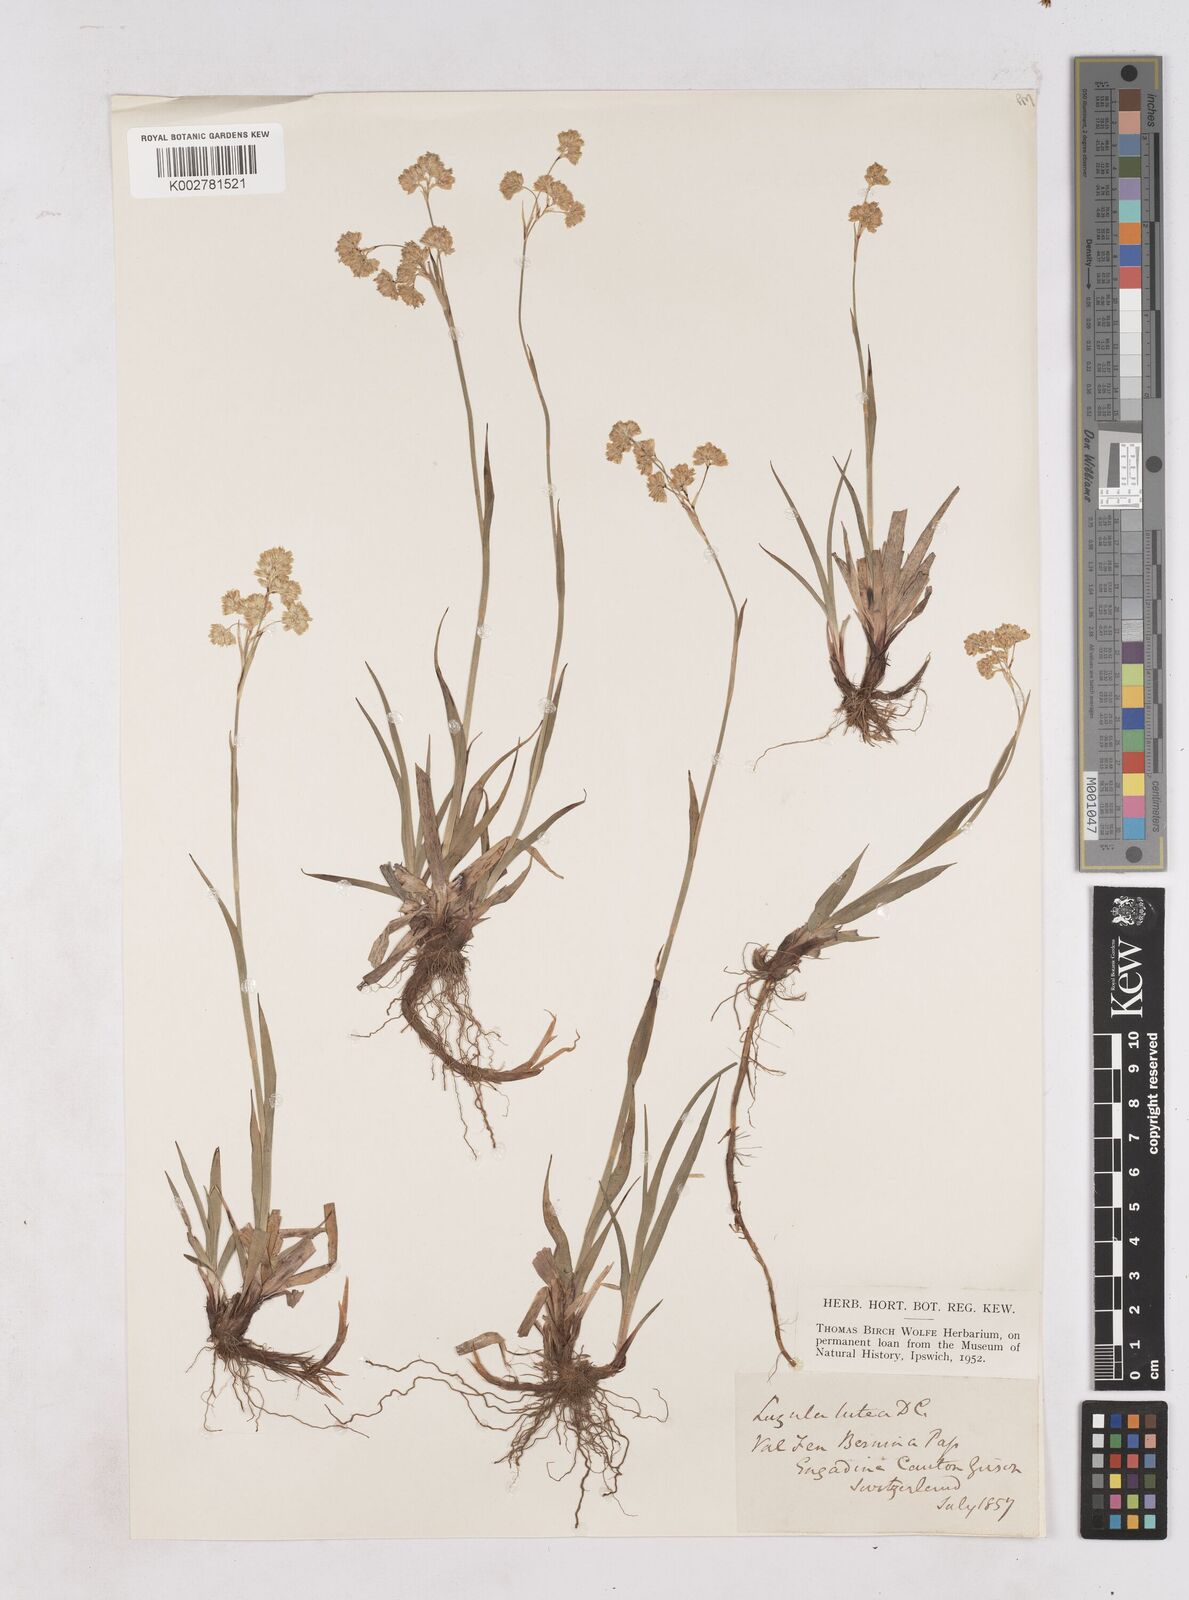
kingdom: Plantae
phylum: Tracheophyta
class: Liliopsida
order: Poales
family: Juncaceae
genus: Luzula
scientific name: Luzula lutea
